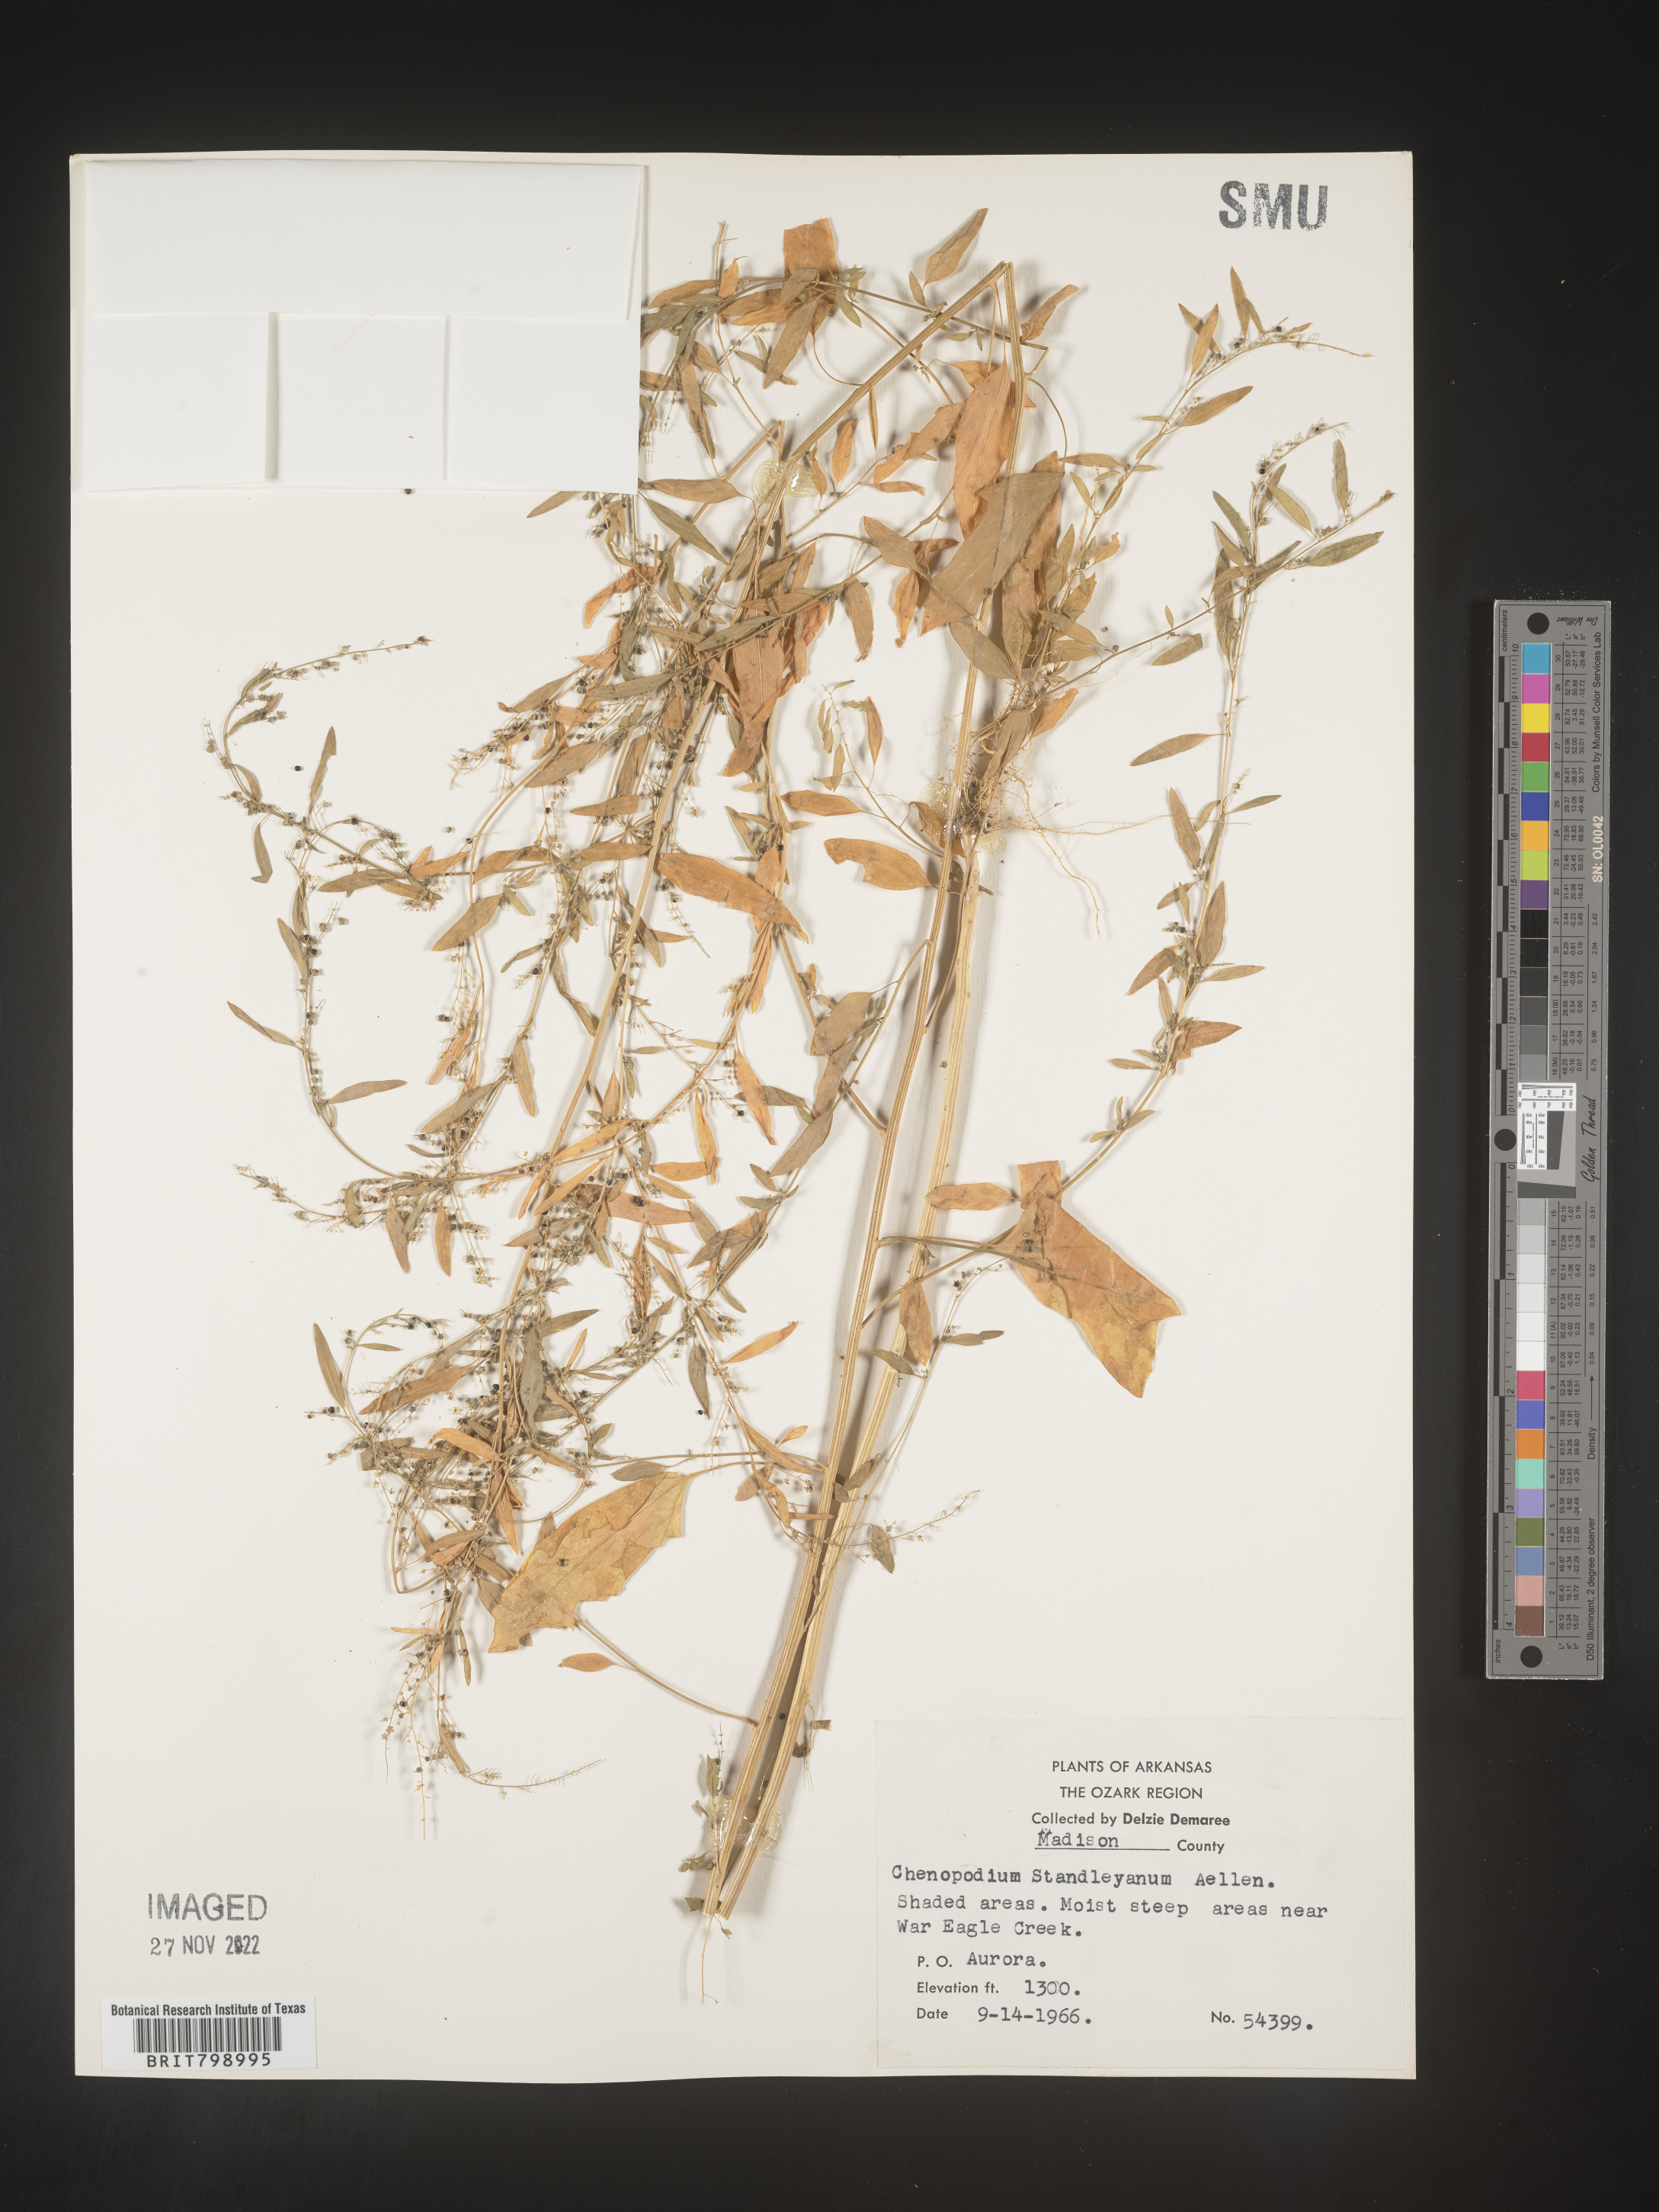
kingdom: Plantae
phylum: Tracheophyta
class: Magnoliopsida
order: Caryophyllales
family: Amaranthaceae
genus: Chenopodiastrum
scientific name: Chenopodiastrum standleyanum
